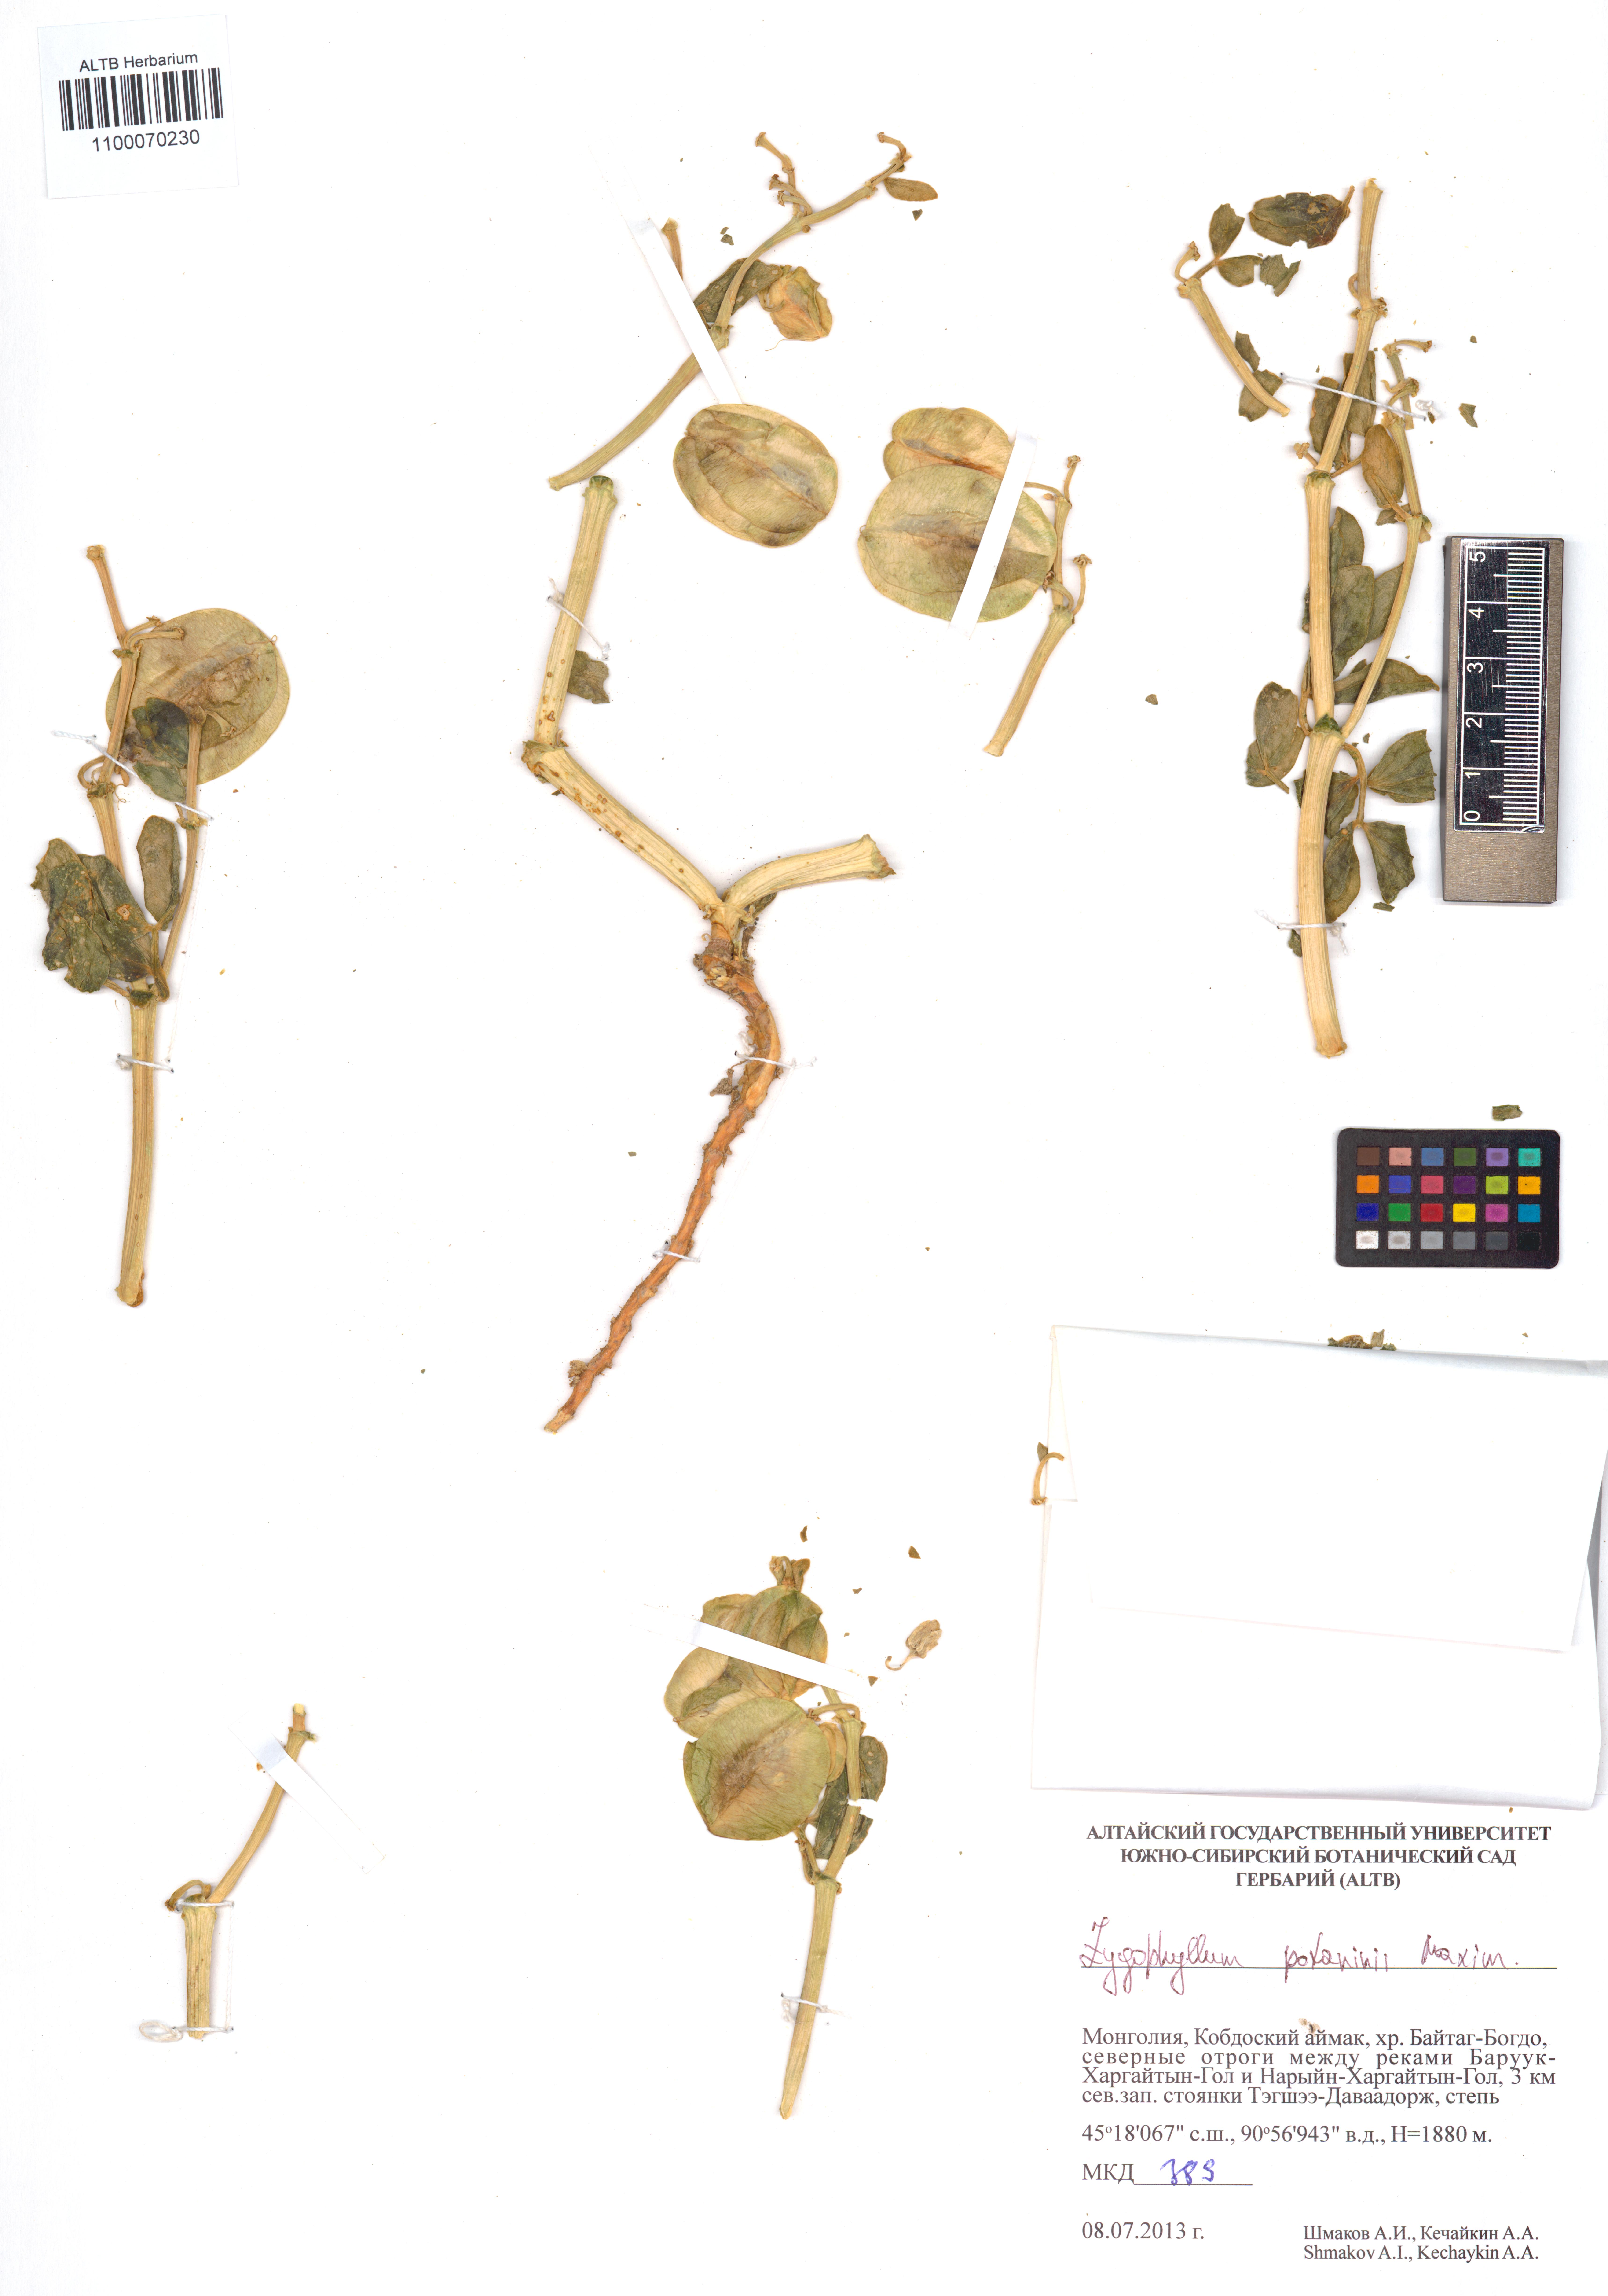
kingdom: Plantae
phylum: Tracheophyta
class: Magnoliopsida
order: Zygophyllales
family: Zygophyllaceae
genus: Zygophyllum
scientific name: Zygophyllum potaninii
